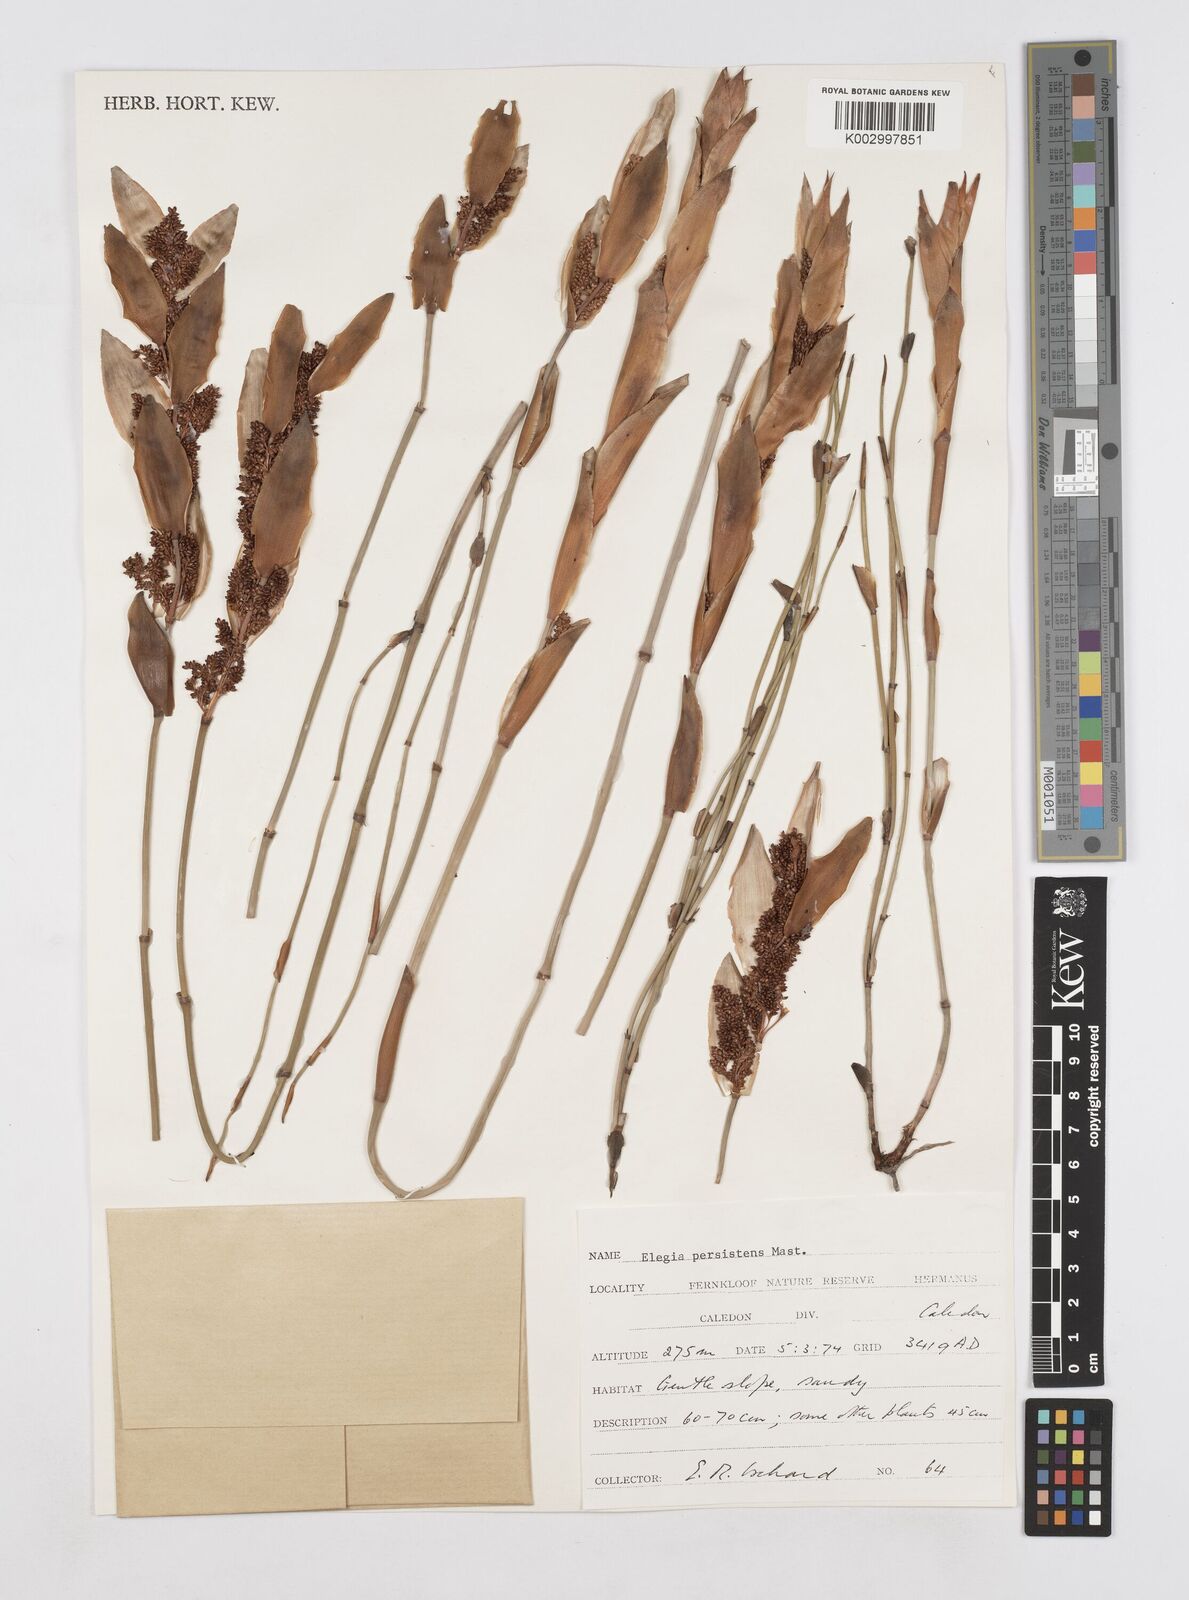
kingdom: Plantae
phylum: Tracheophyta
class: Liliopsida
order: Poales
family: Restionaceae
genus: Elegia
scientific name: Elegia persistens
